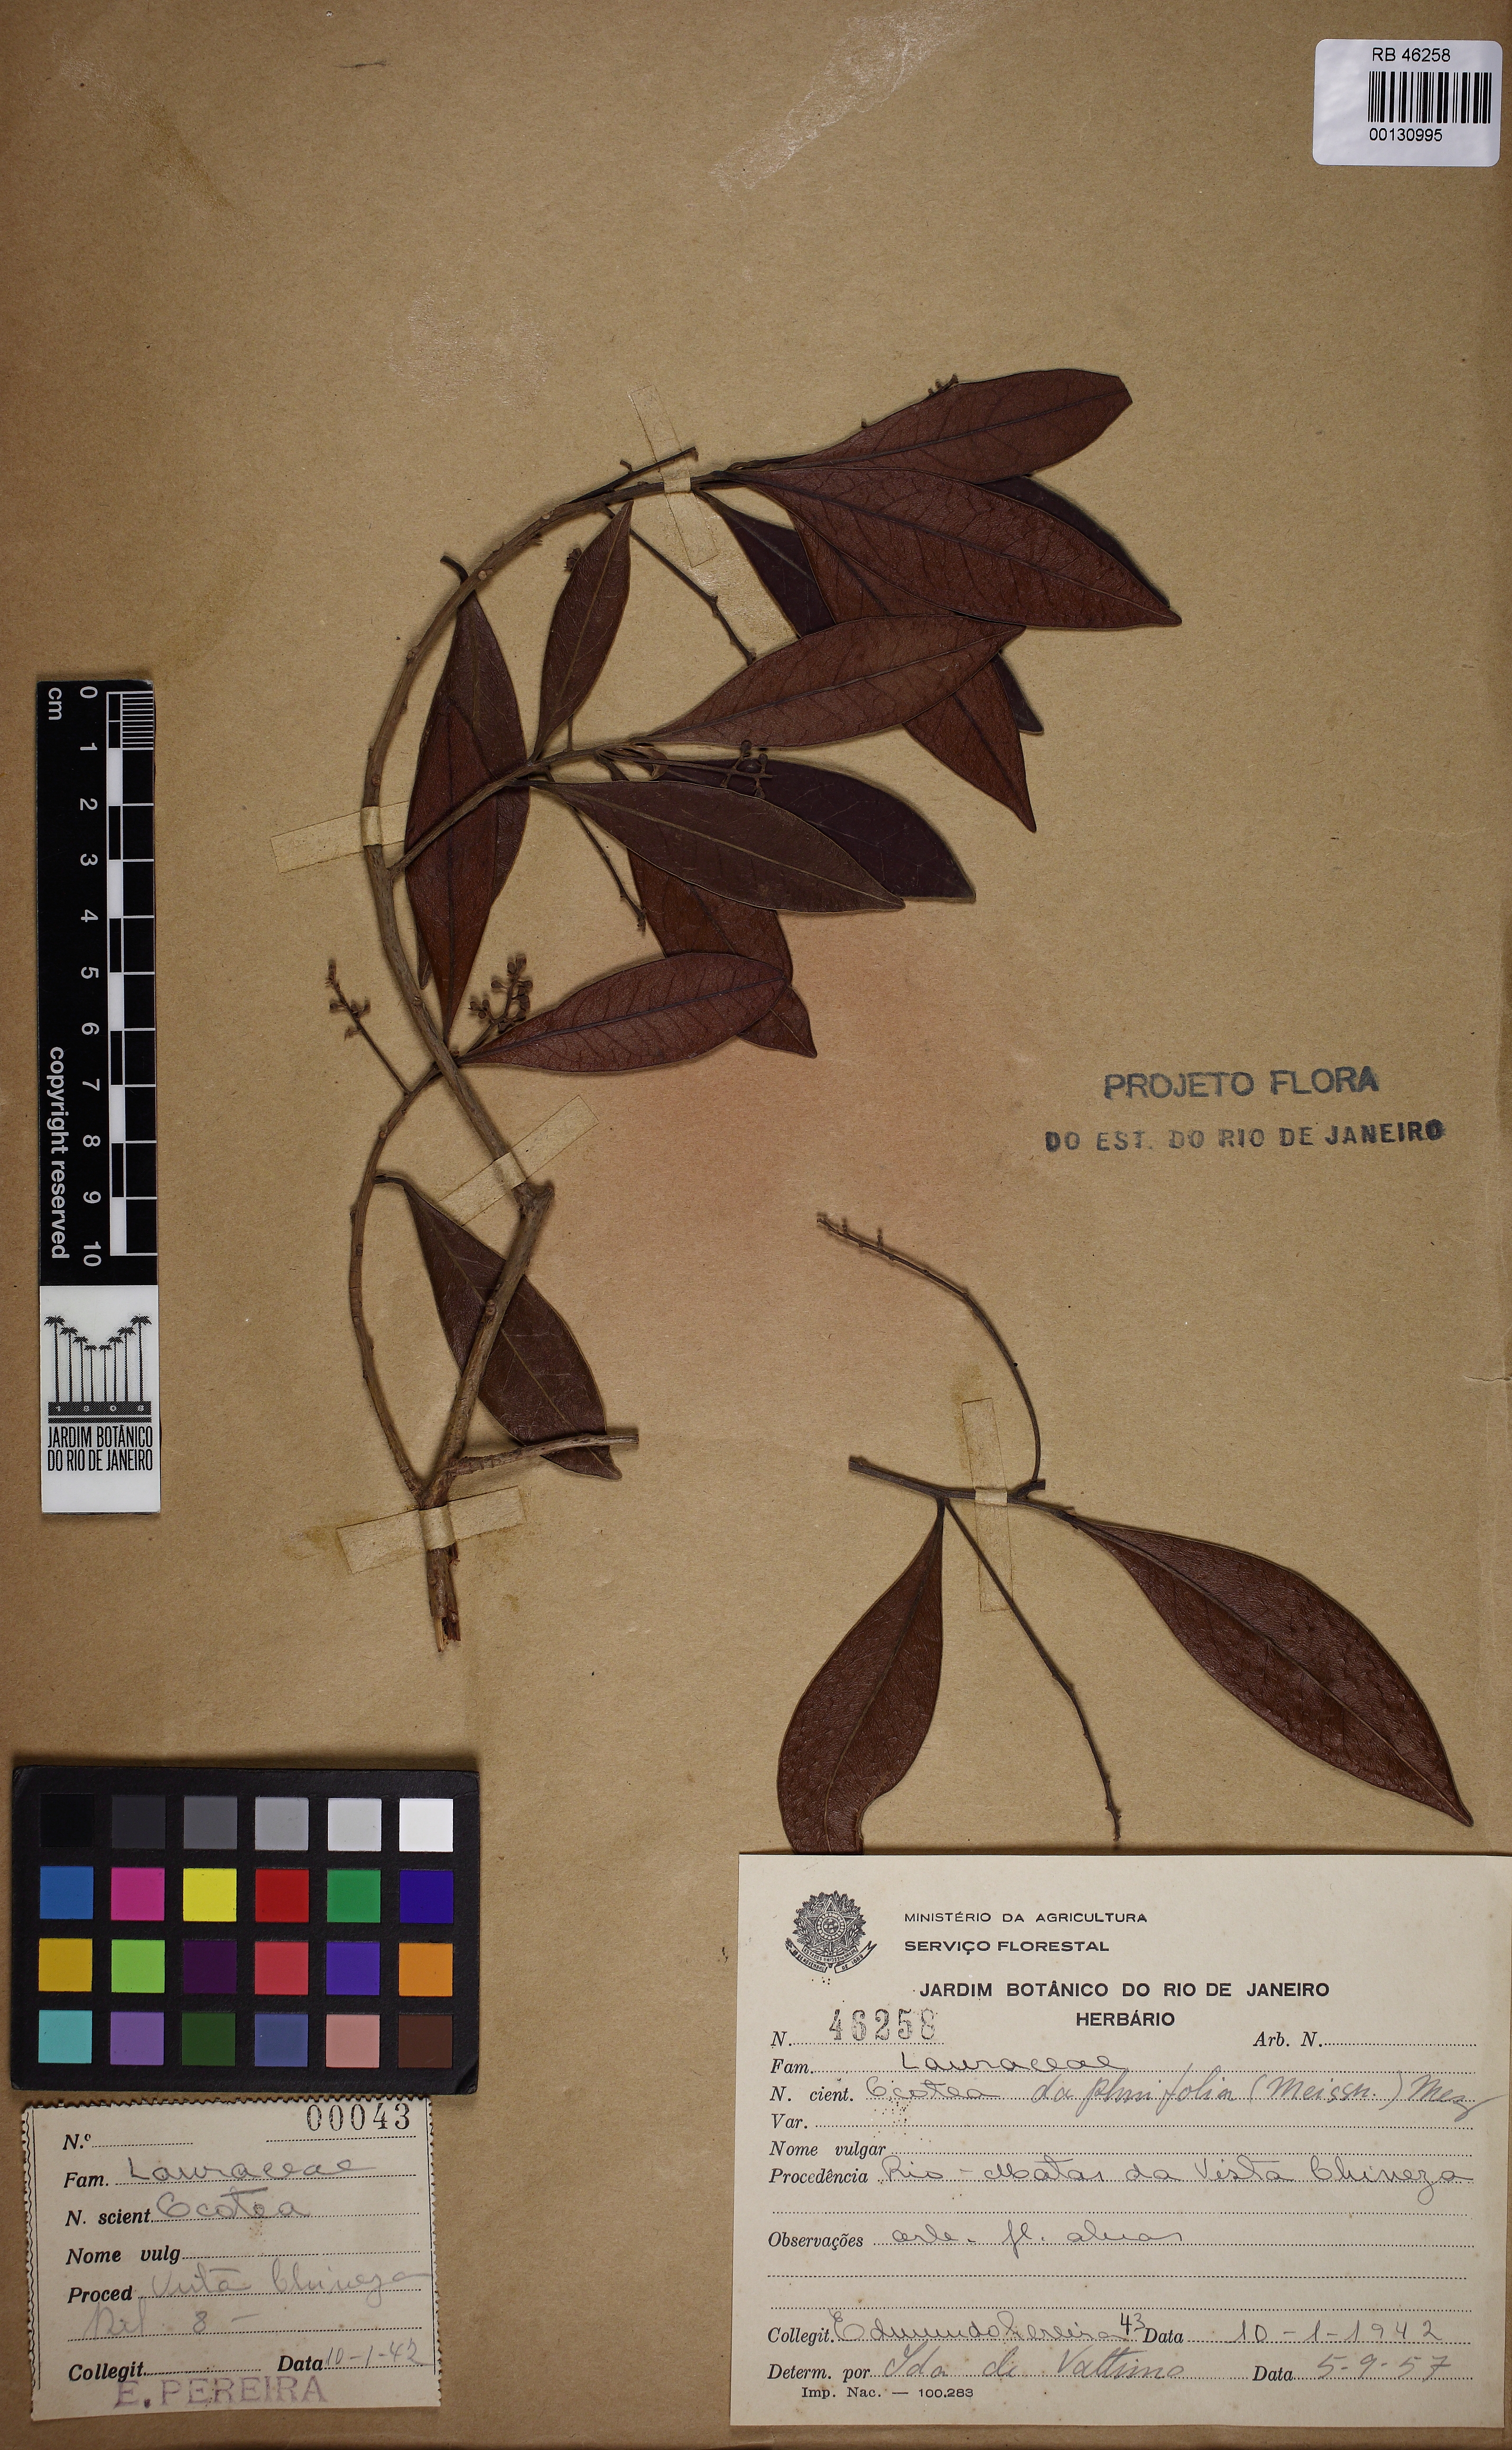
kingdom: Plantae
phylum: Tracheophyta
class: Magnoliopsida
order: Laurales
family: Lauraceae
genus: Ocotea
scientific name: Ocotea daphnifolia
